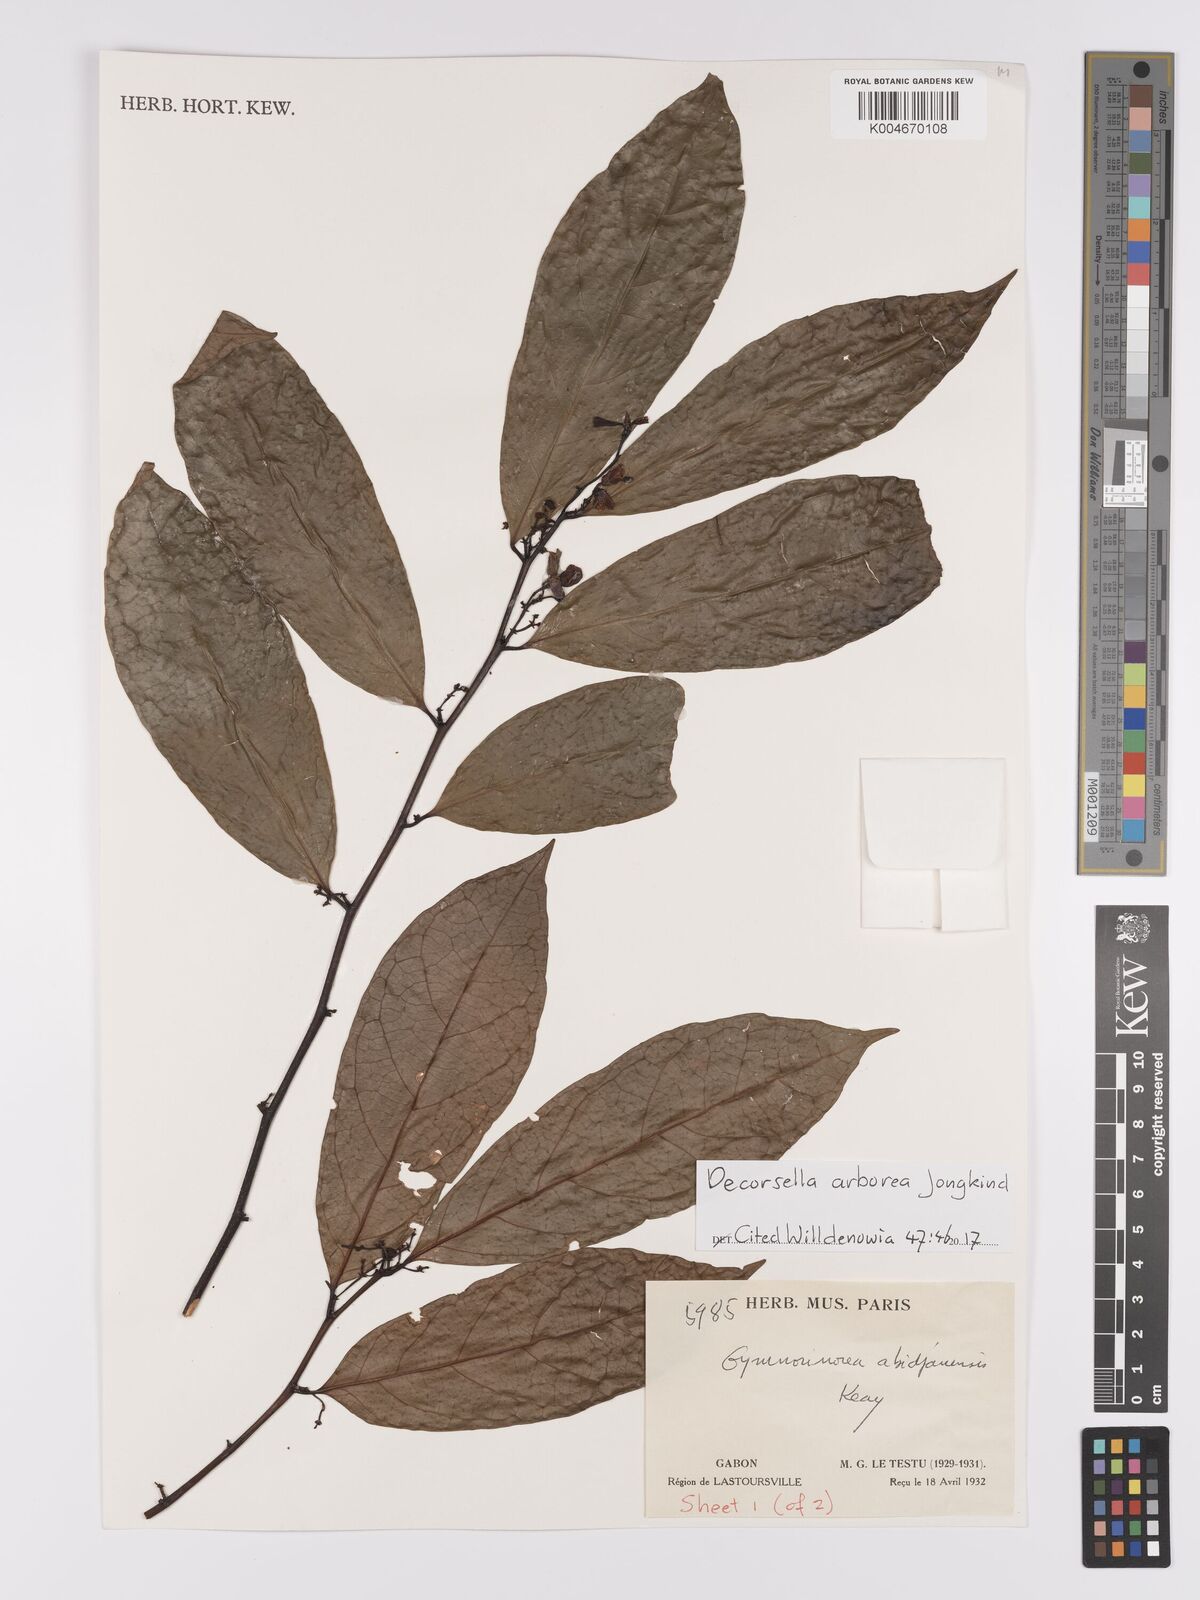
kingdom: Plantae
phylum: Tracheophyta
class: Magnoliopsida
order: Malpighiales
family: Violaceae
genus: Decorsella
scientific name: Decorsella arborea
